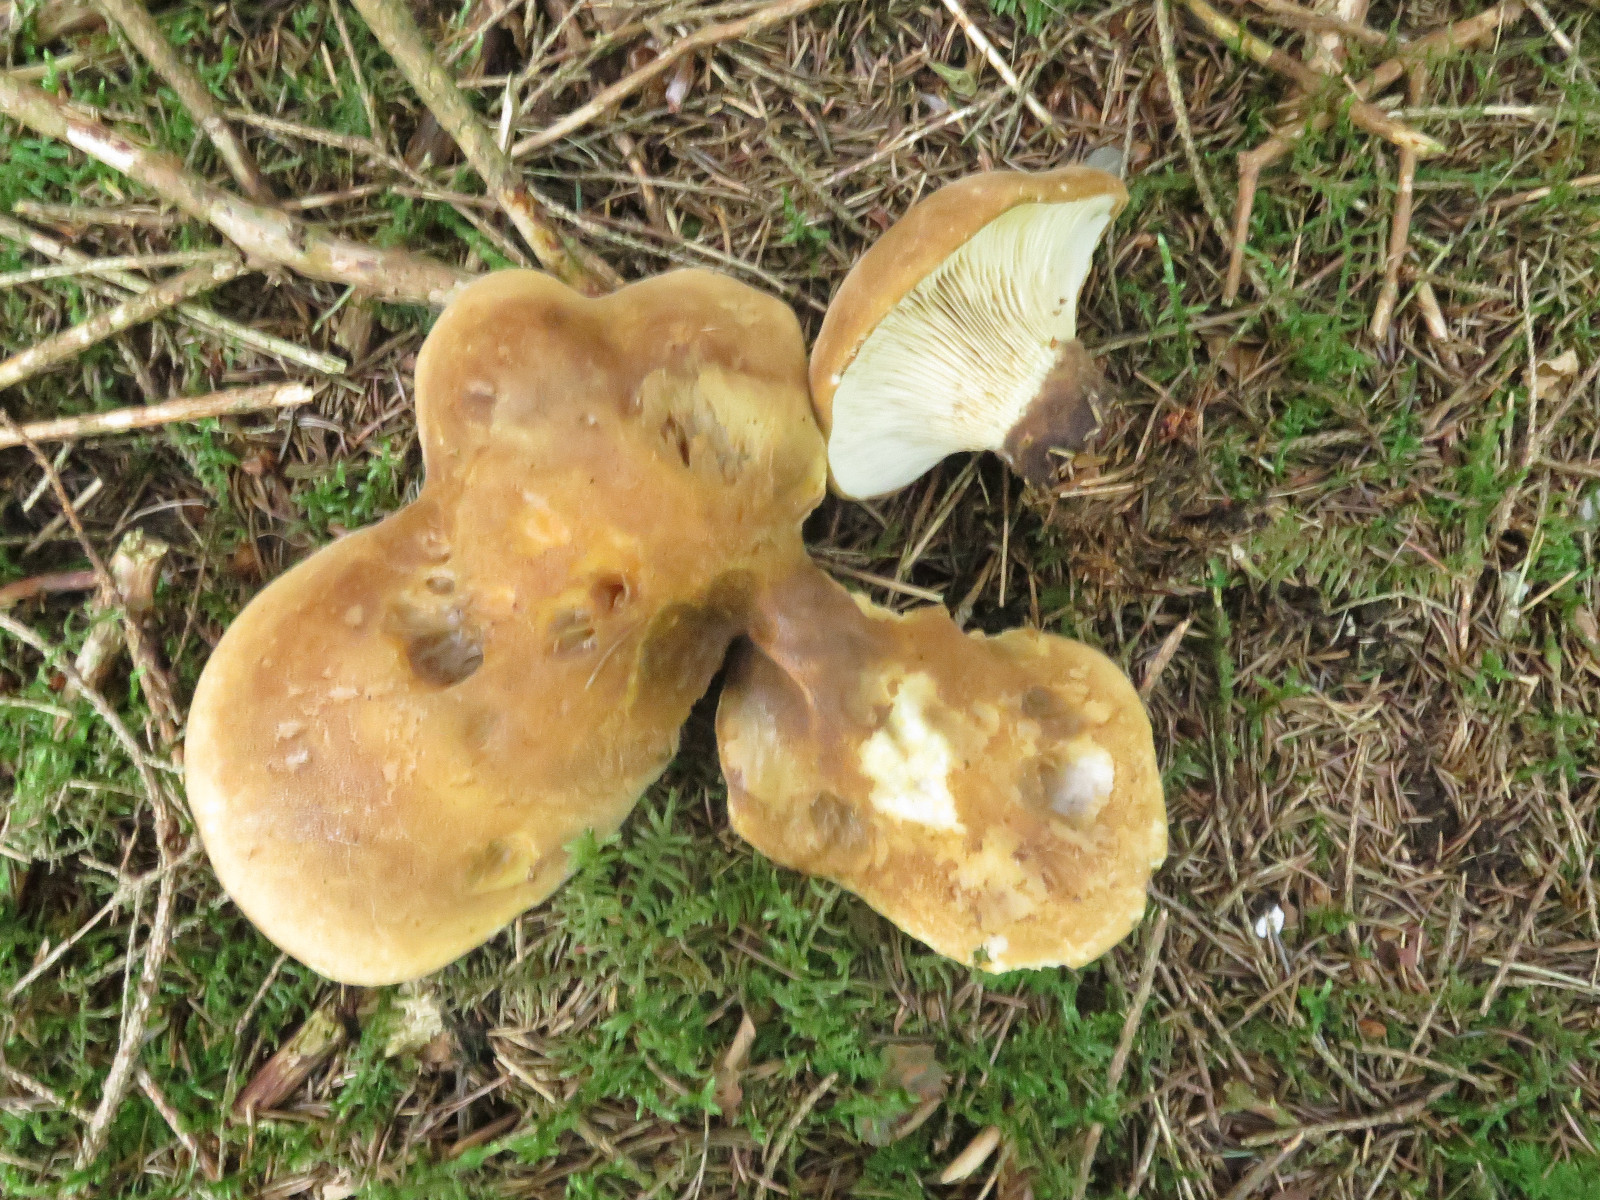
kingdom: Fungi
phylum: Basidiomycota
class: Agaricomycetes
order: Boletales
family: Tapinellaceae
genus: Tapinella
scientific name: Tapinella atrotomentosa
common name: sortfiltet viftesvamp
